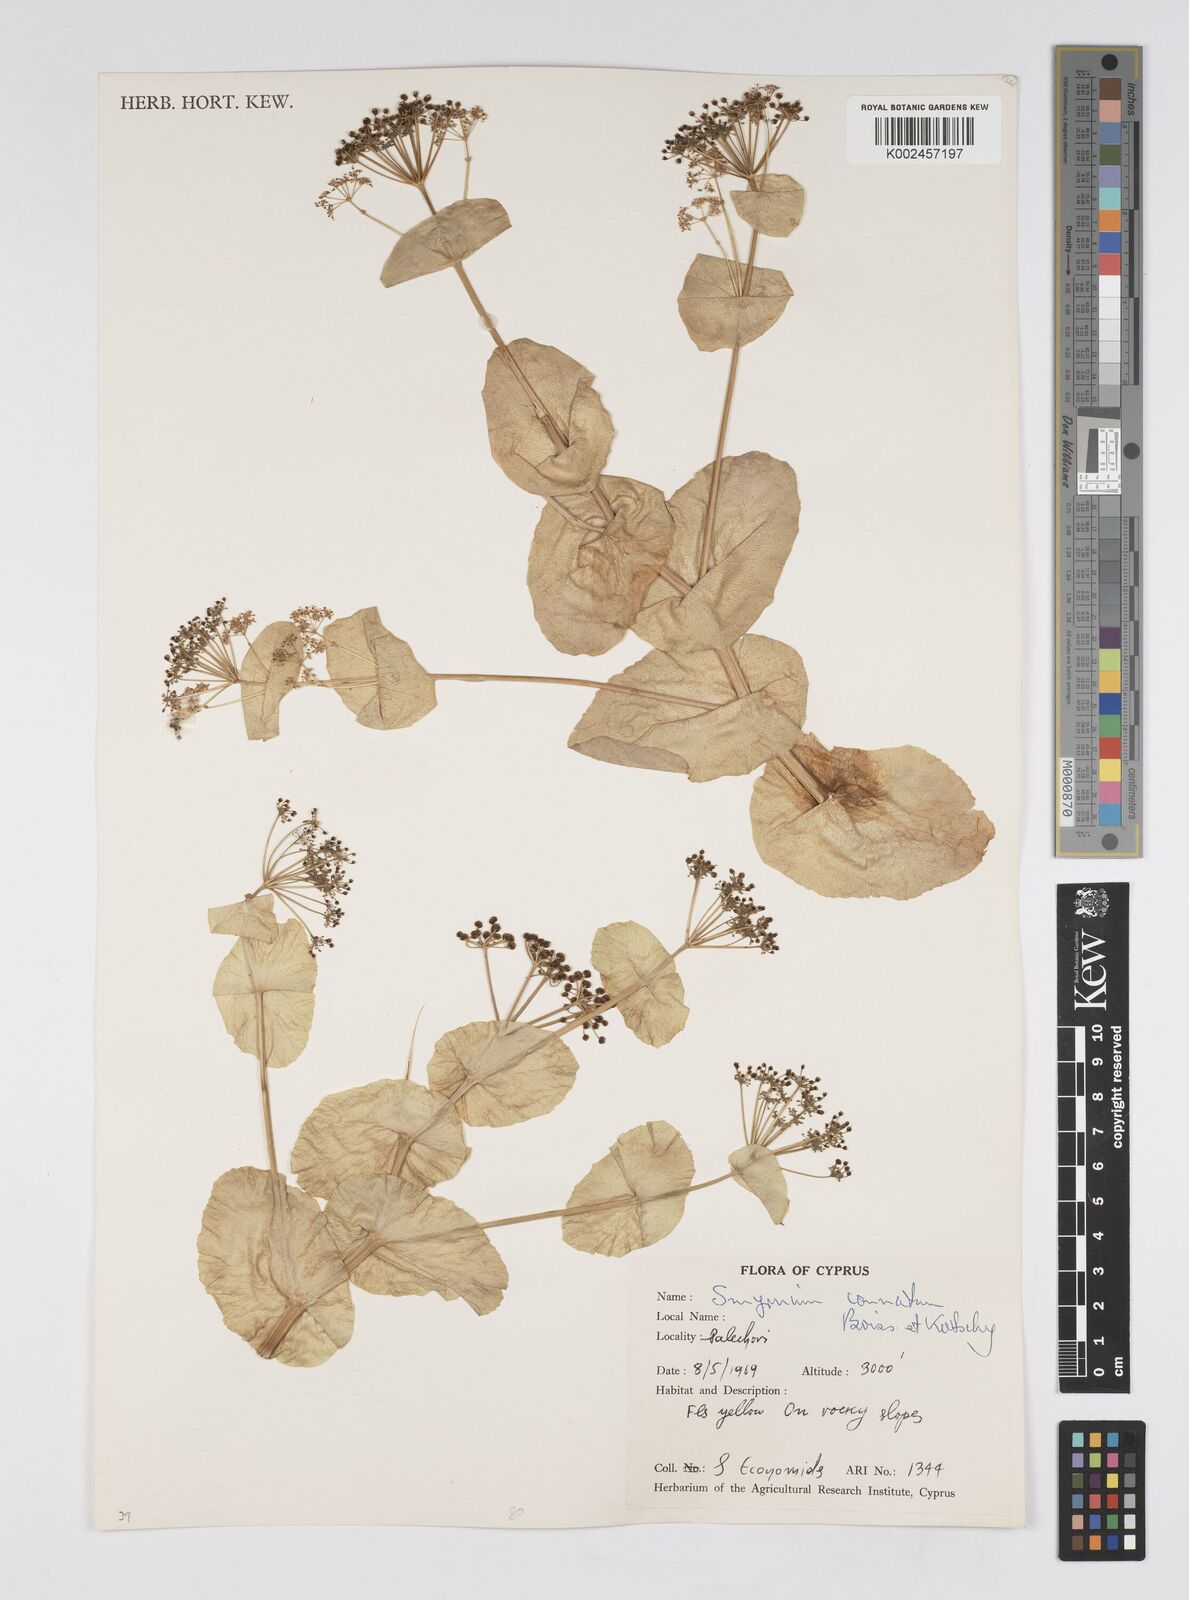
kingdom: Plantae
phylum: Tracheophyta
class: Magnoliopsida
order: Apiales
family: Apiaceae
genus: Smyrnium
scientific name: Smyrnium connatum
